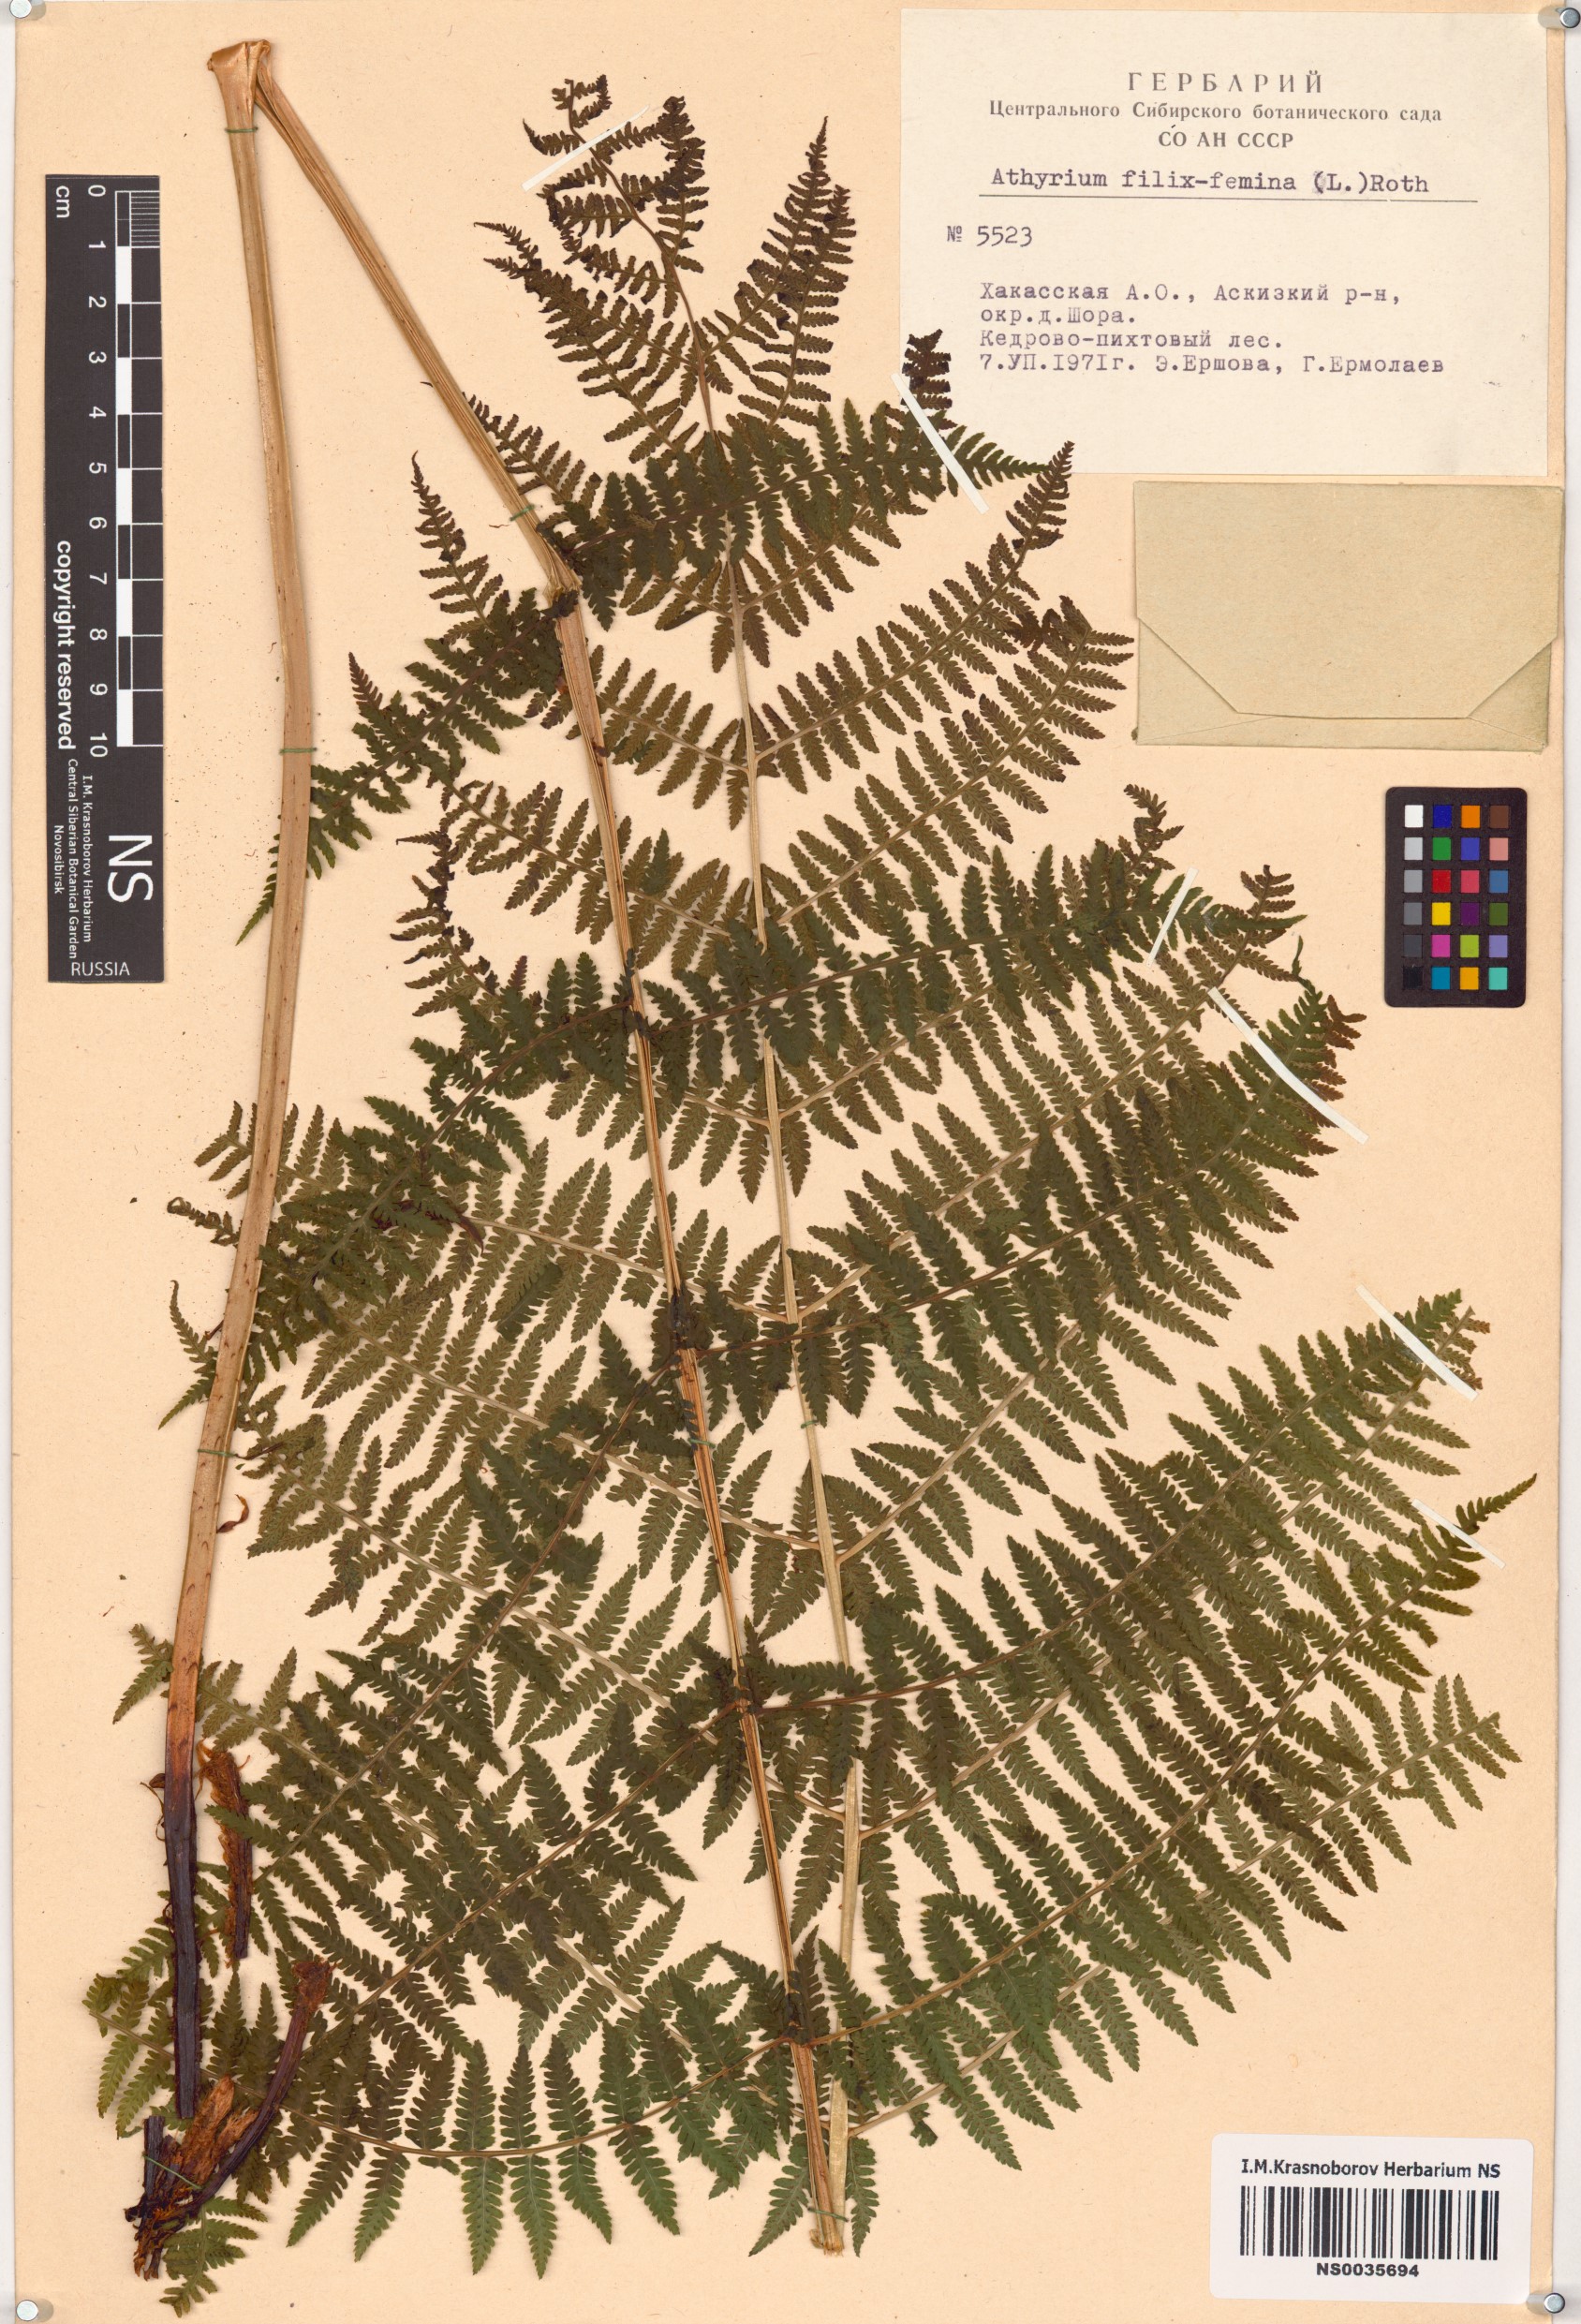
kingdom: Plantae
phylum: Tracheophyta
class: Polypodiopsida
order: Polypodiales
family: Athyriaceae
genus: Athyrium
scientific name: Athyrium filix-femina
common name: Lady fern
